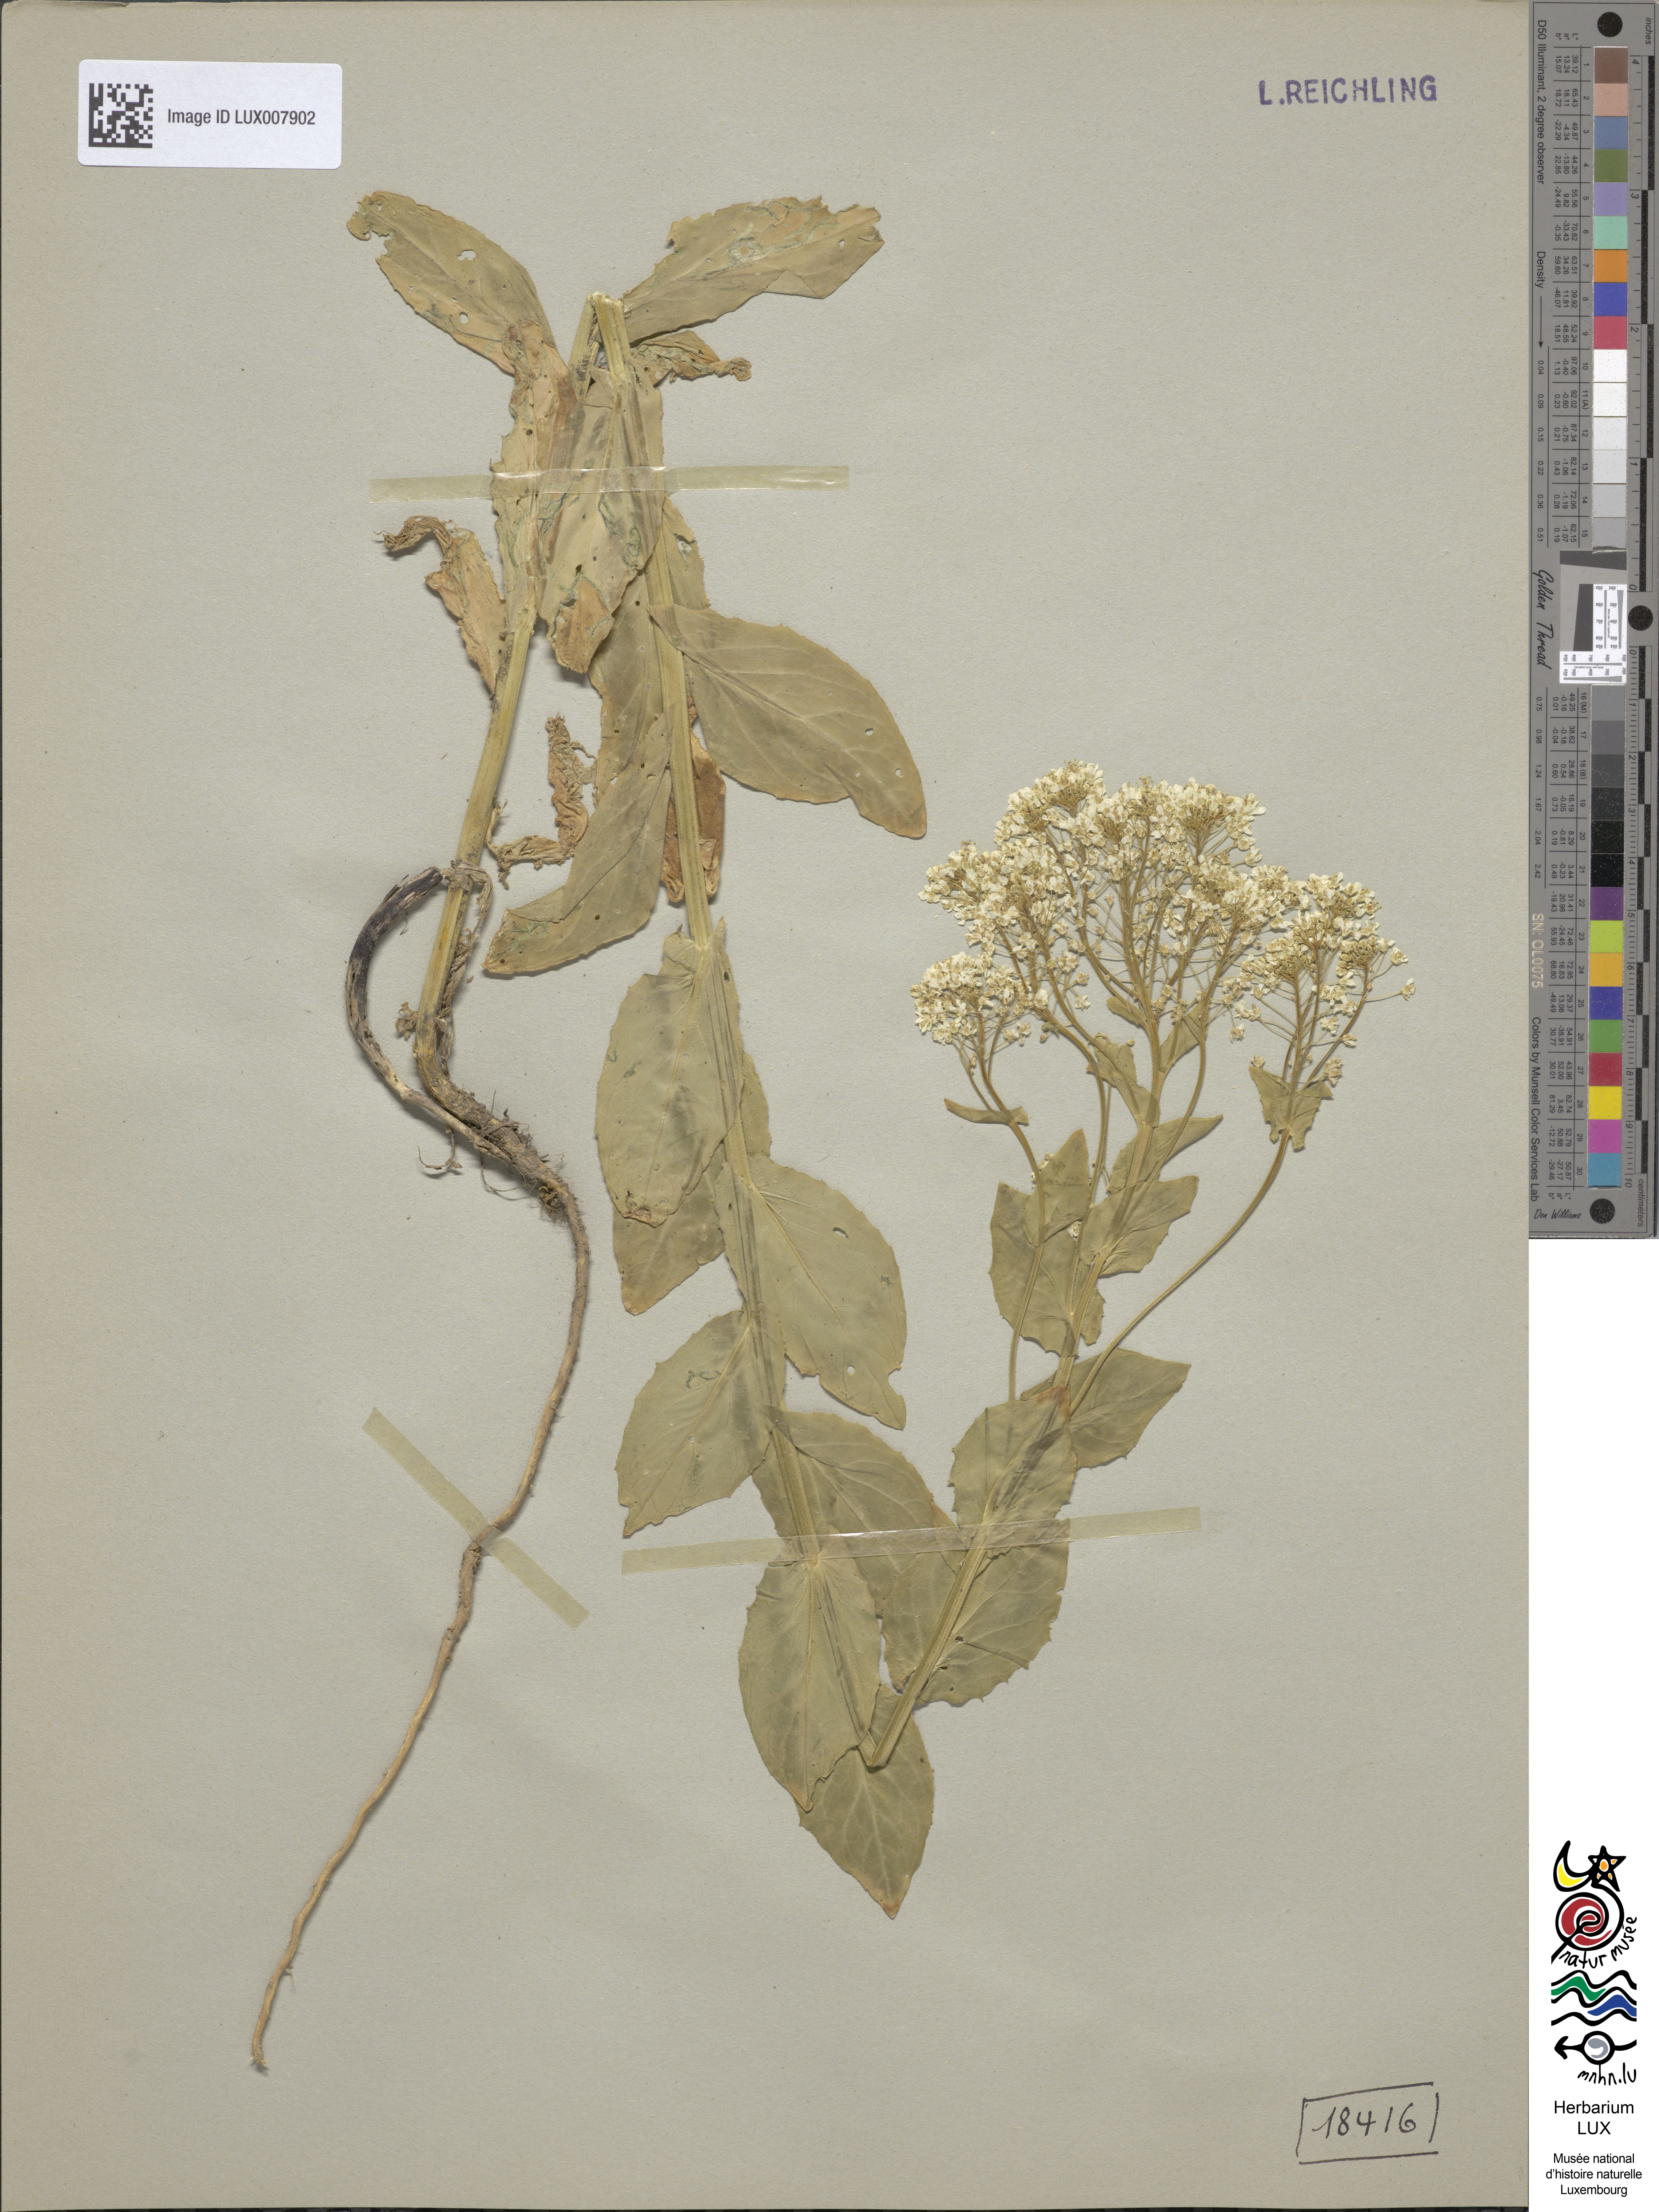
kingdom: Plantae
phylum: Tracheophyta
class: Magnoliopsida
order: Brassicales
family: Brassicaceae
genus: Lepidium
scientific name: Lepidium draba
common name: Hoary cress
